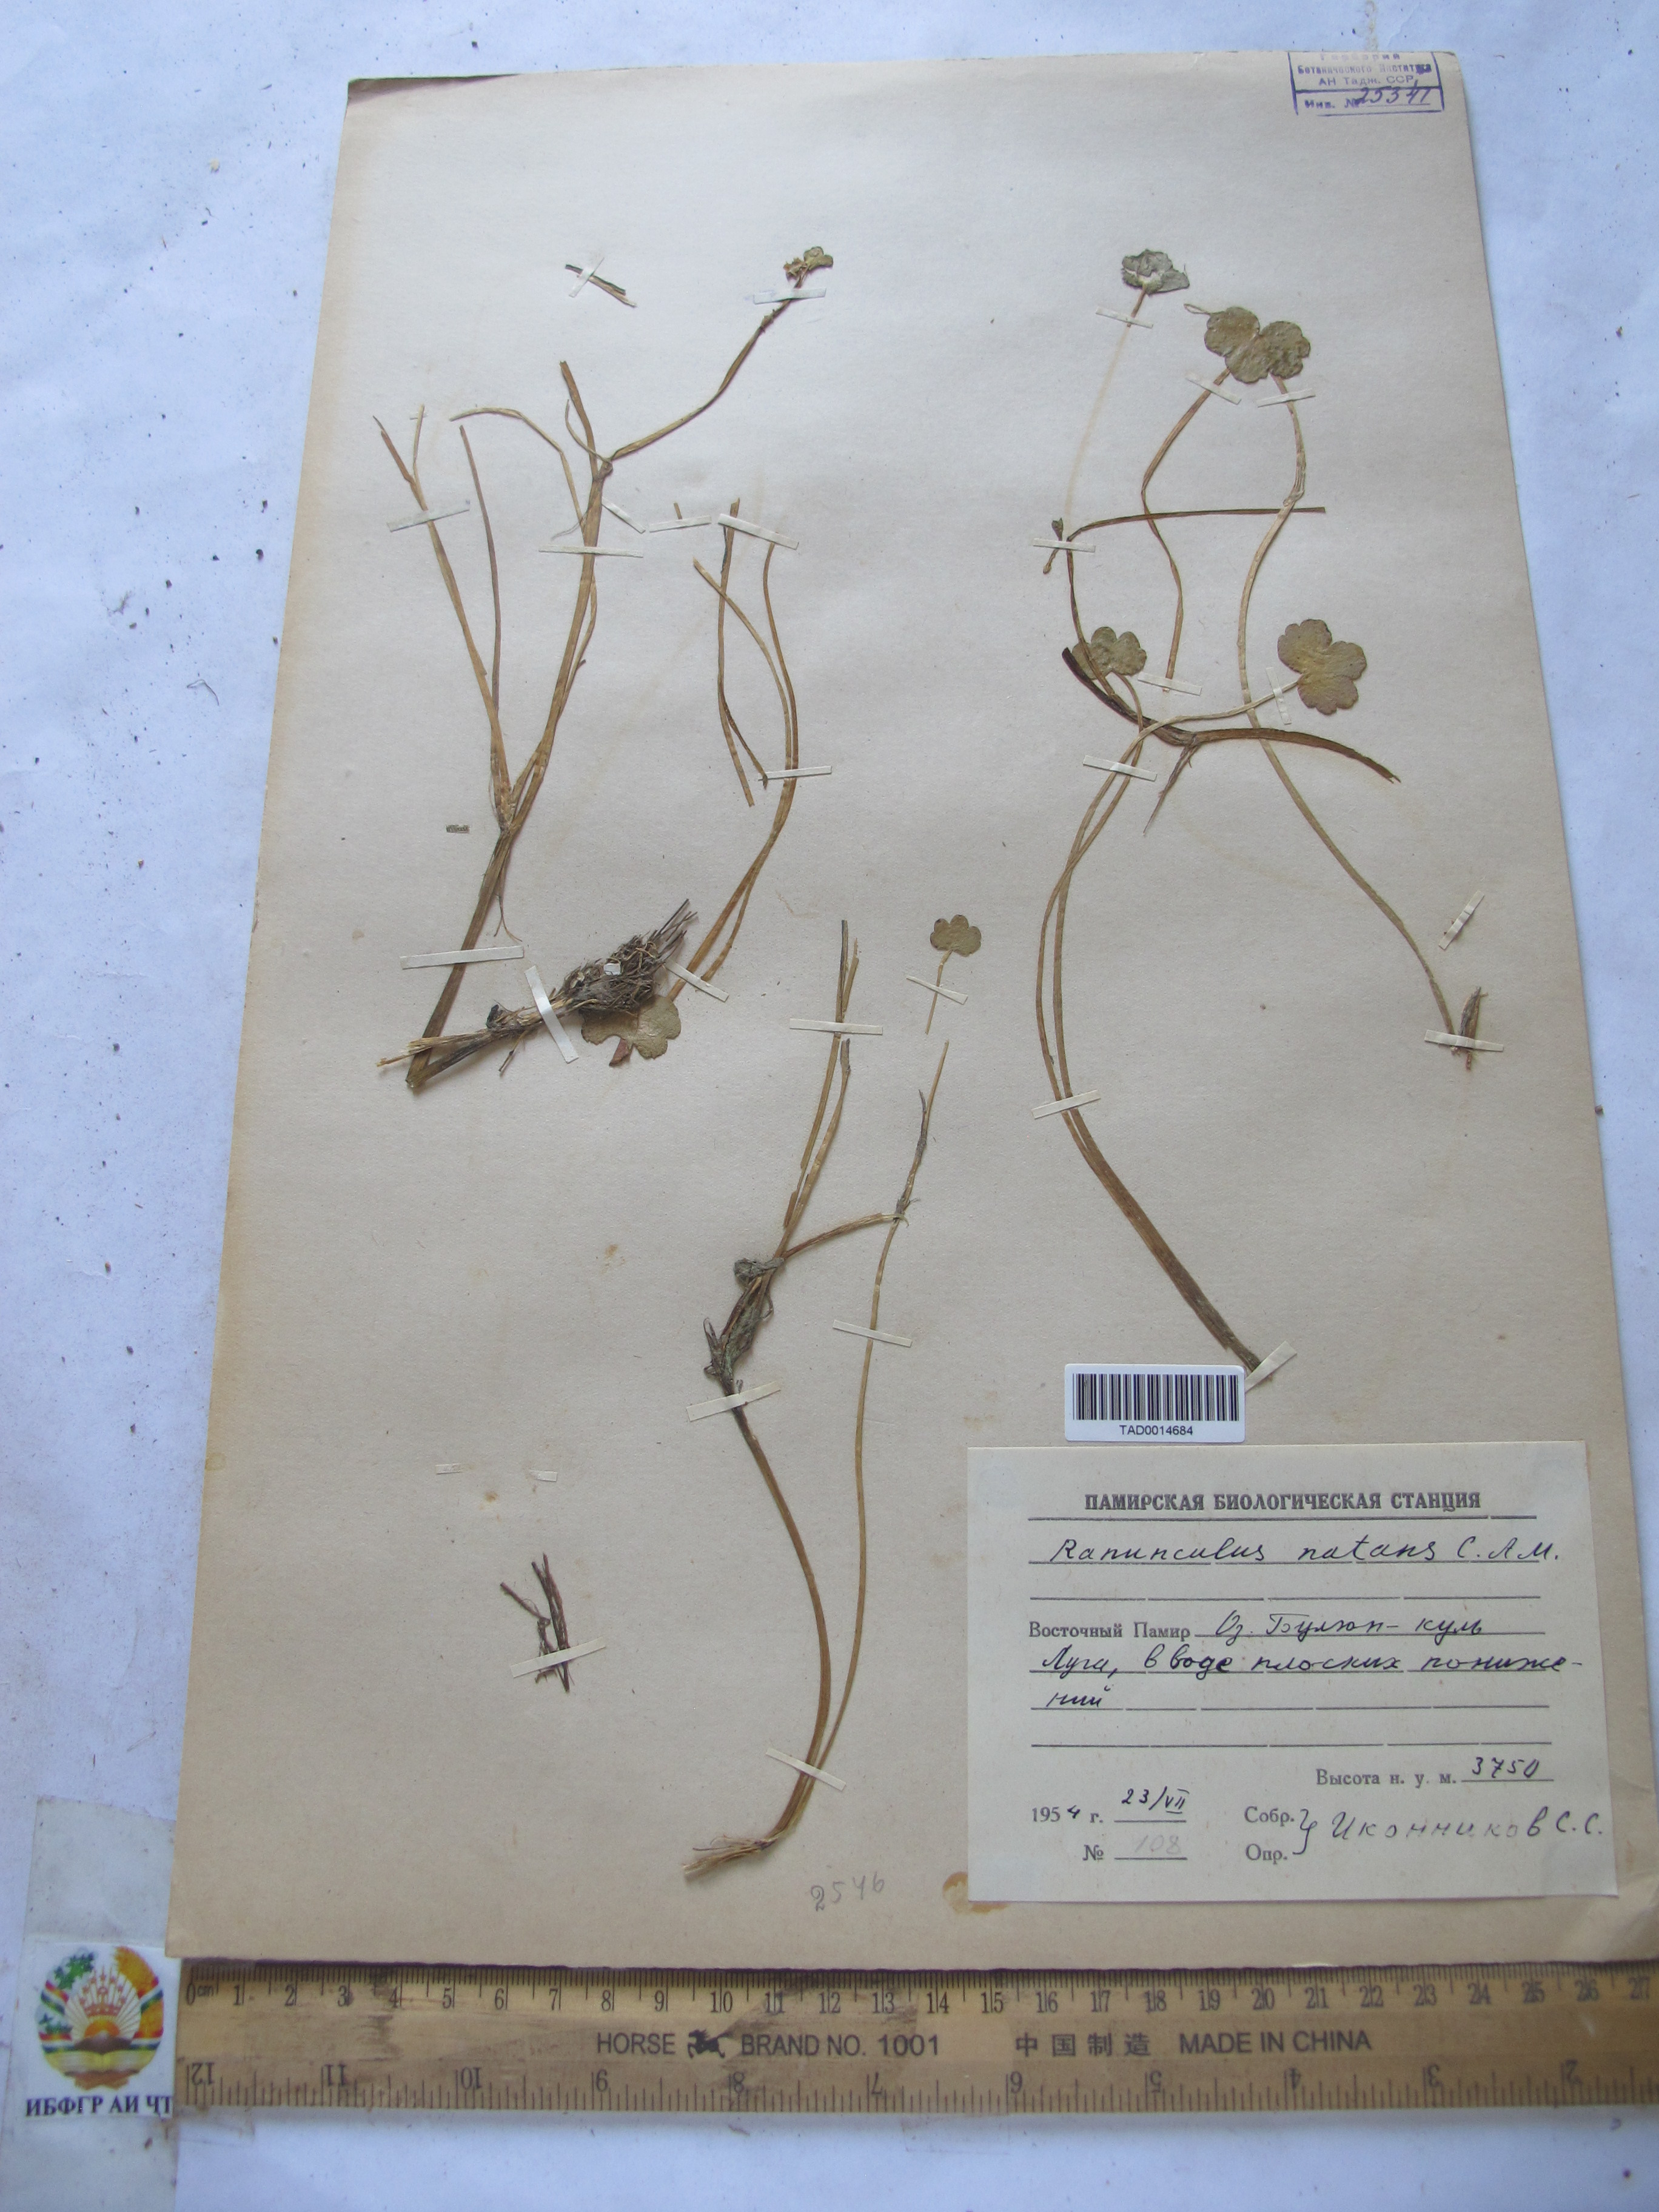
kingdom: Plantae
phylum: Tracheophyta
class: Magnoliopsida
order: Ranunculales
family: Ranunculaceae
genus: Ranunculus
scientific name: Ranunculus natans
